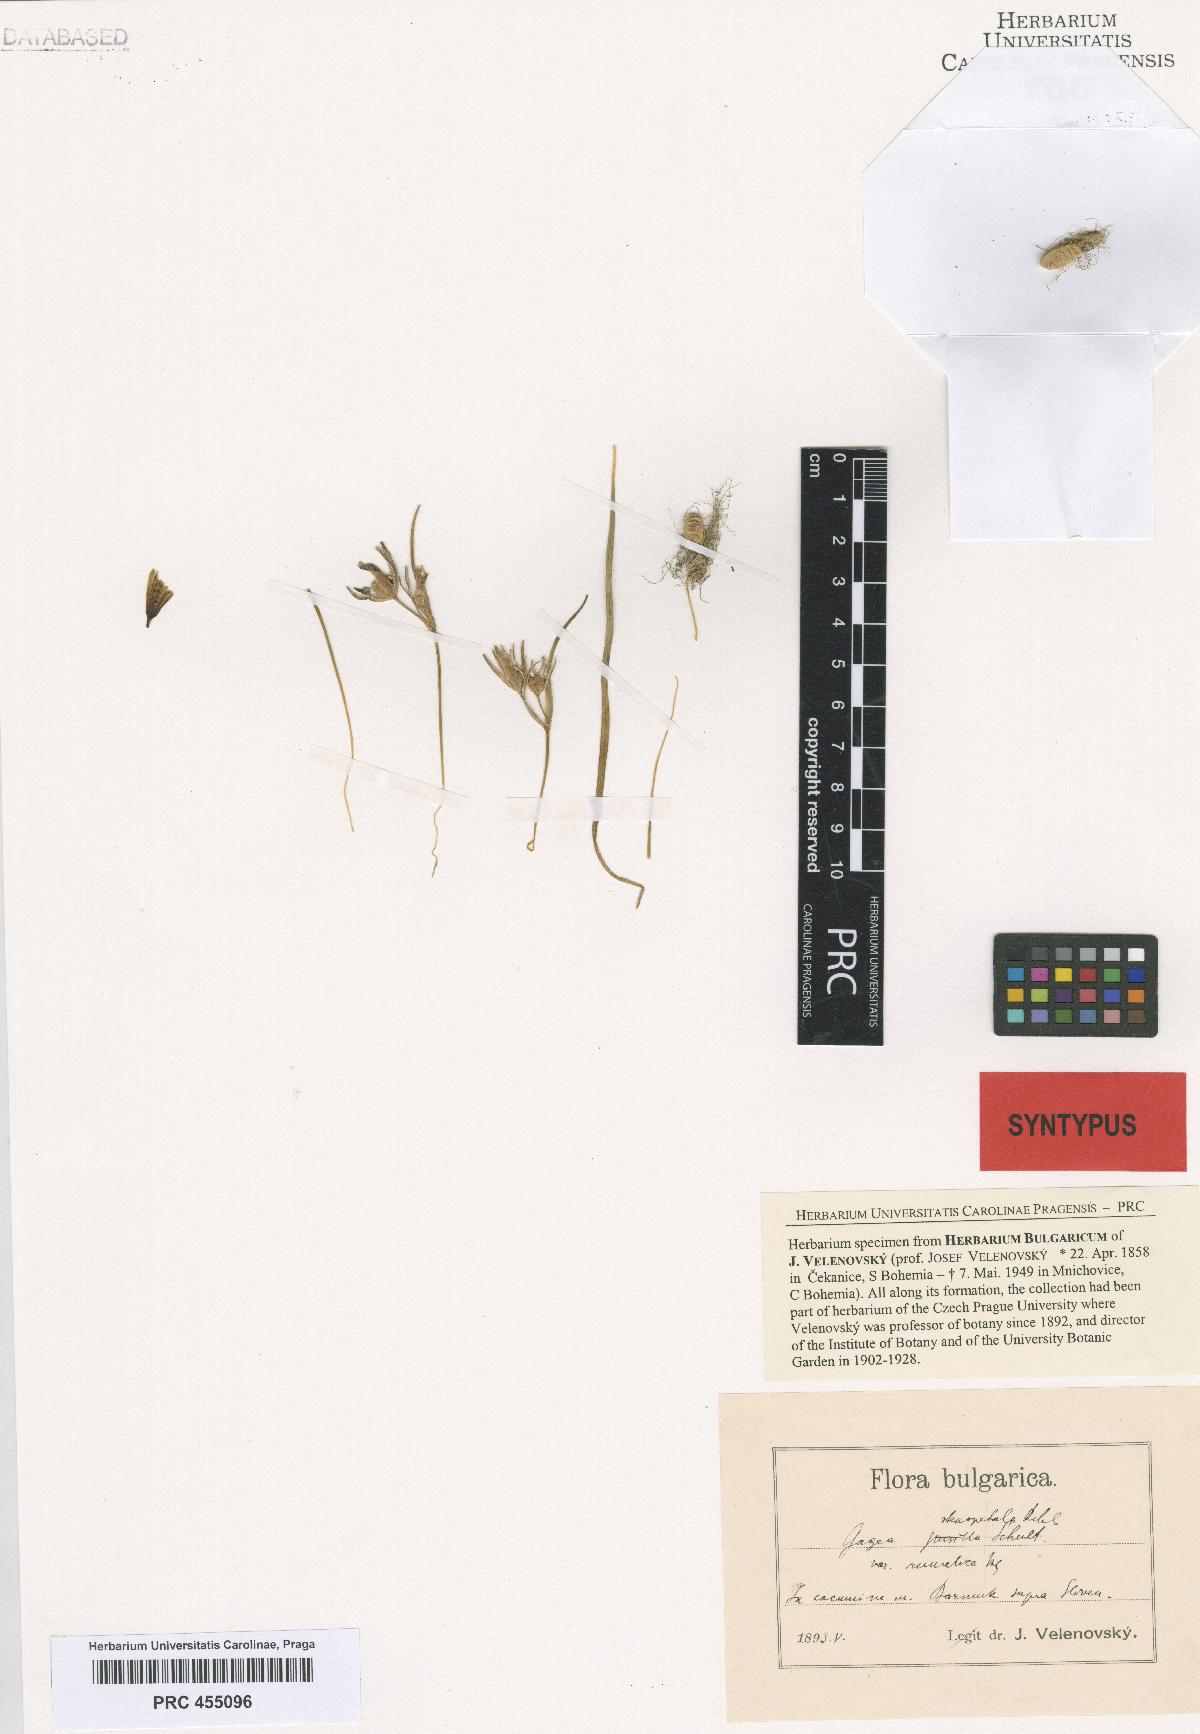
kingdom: Plantae
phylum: Tracheophyta
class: Liliopsida
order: Liliales
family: Liliaceae
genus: Gagea
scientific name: Gagea pratensis
